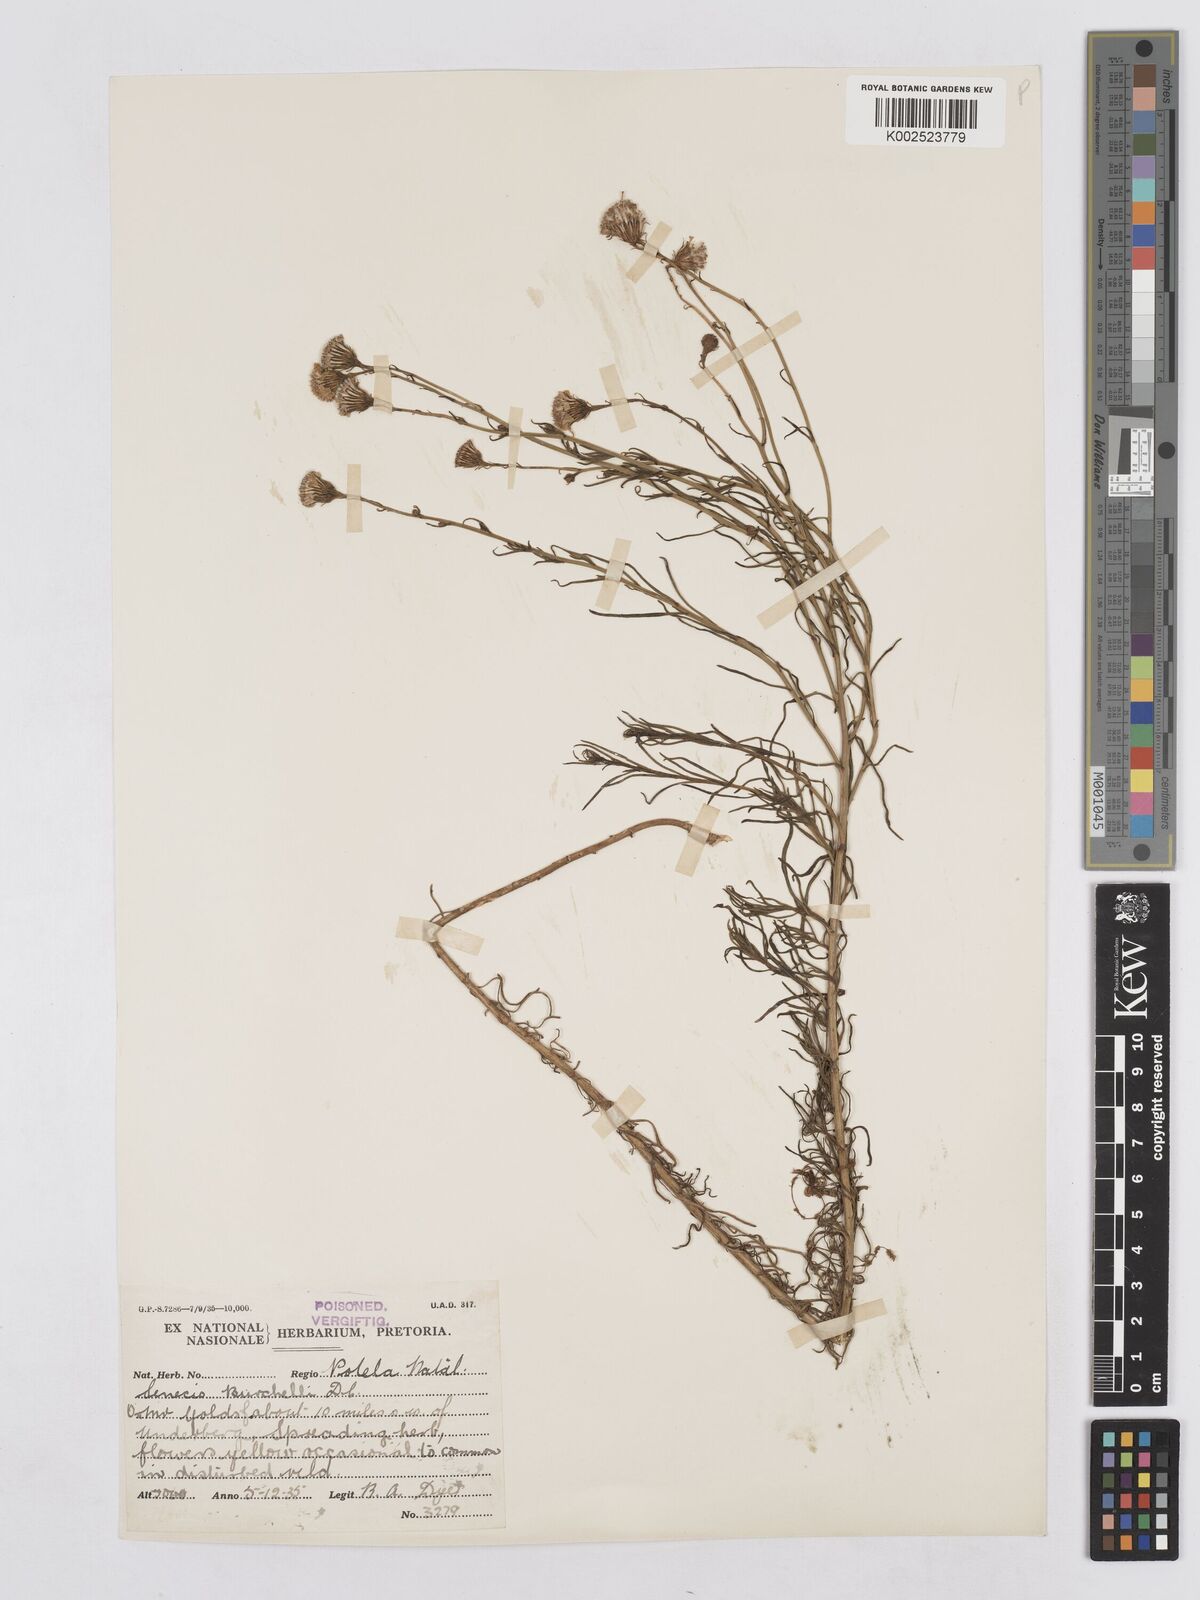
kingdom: Plantae
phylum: Tracheophyta
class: Magnoliopsida
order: Asterales
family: Asteraceae
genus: Senecio
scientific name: Senecio harveyanus
